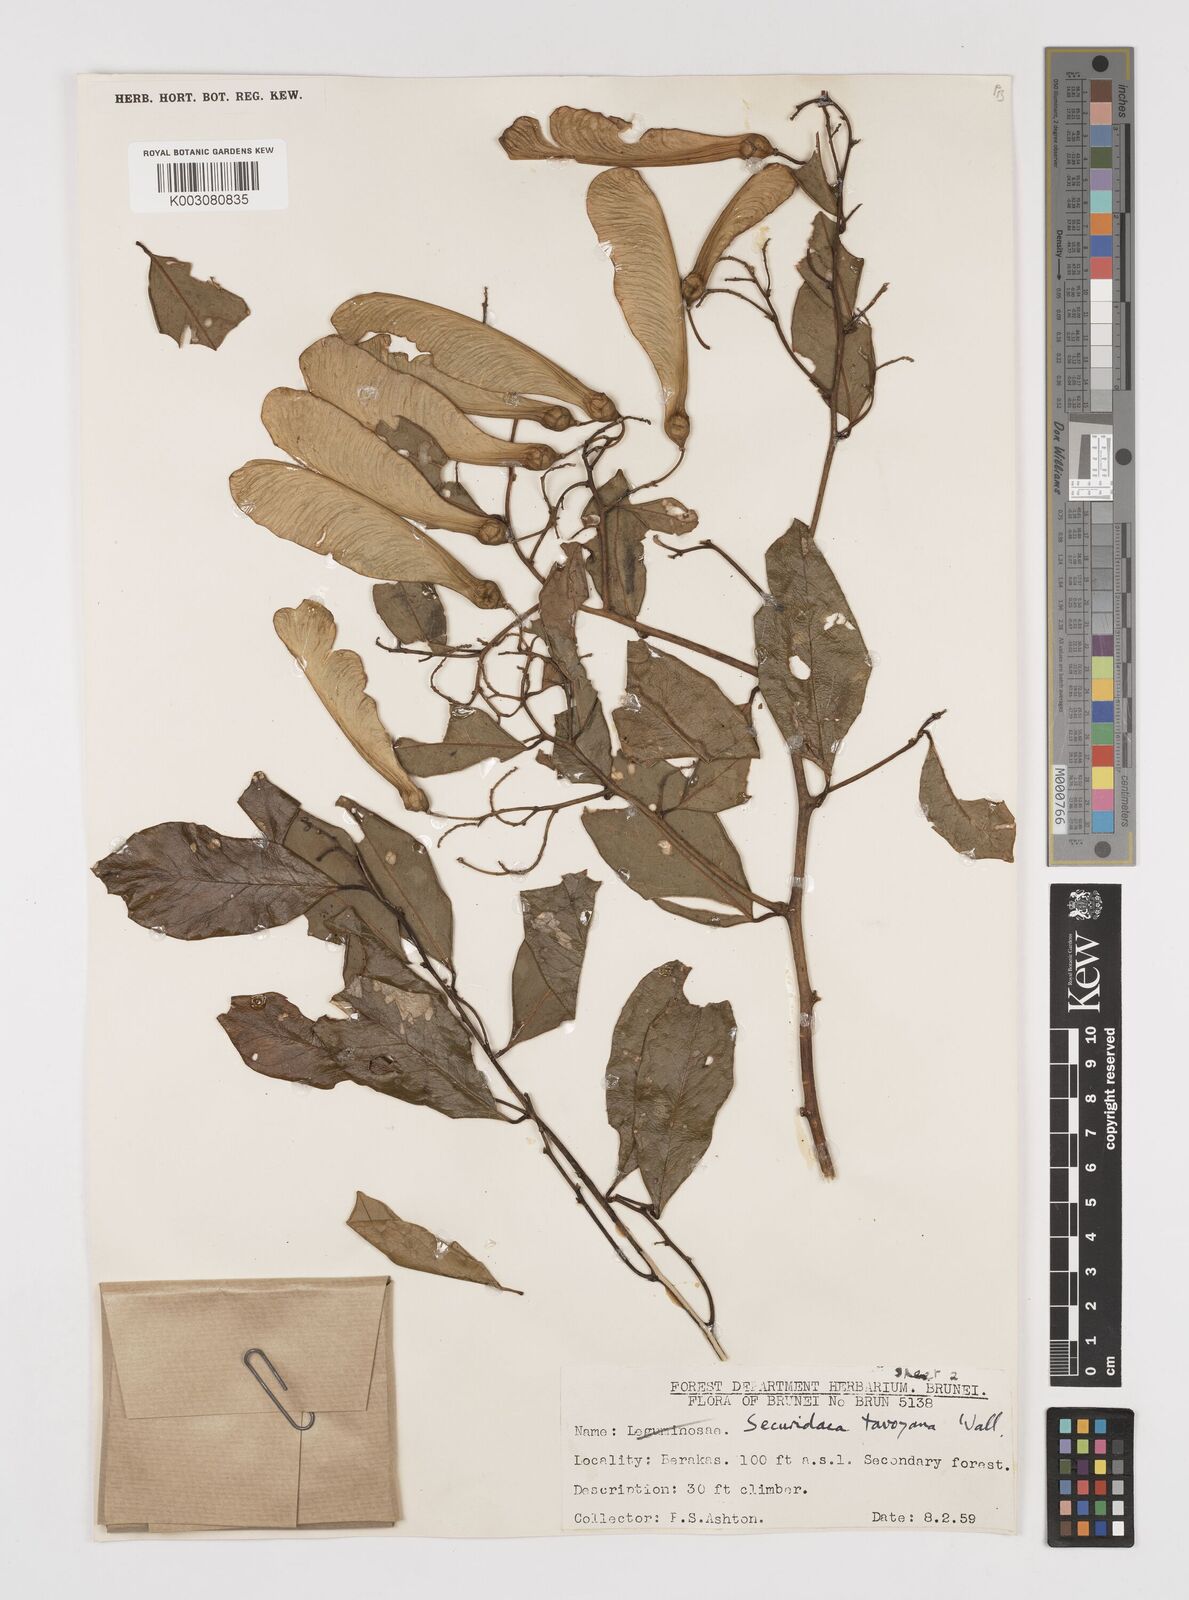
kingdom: Plantae
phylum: Tracheophyta
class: Magnoliopsida
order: Fabales
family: Polygalaceae
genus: Securidaca
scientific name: Securidaca inappendiculata
